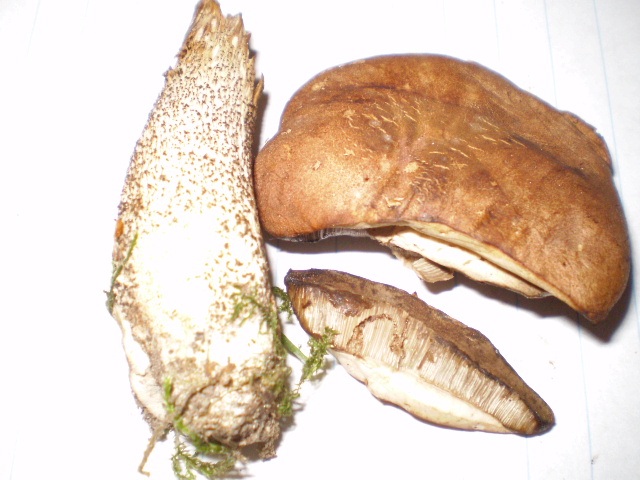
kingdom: Fungi
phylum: Basidiomycota
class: Agaricomycetes
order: Boletales
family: Boletaceae
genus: Leccinum
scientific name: Leccinum scabrum
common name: brun skælrørhat
